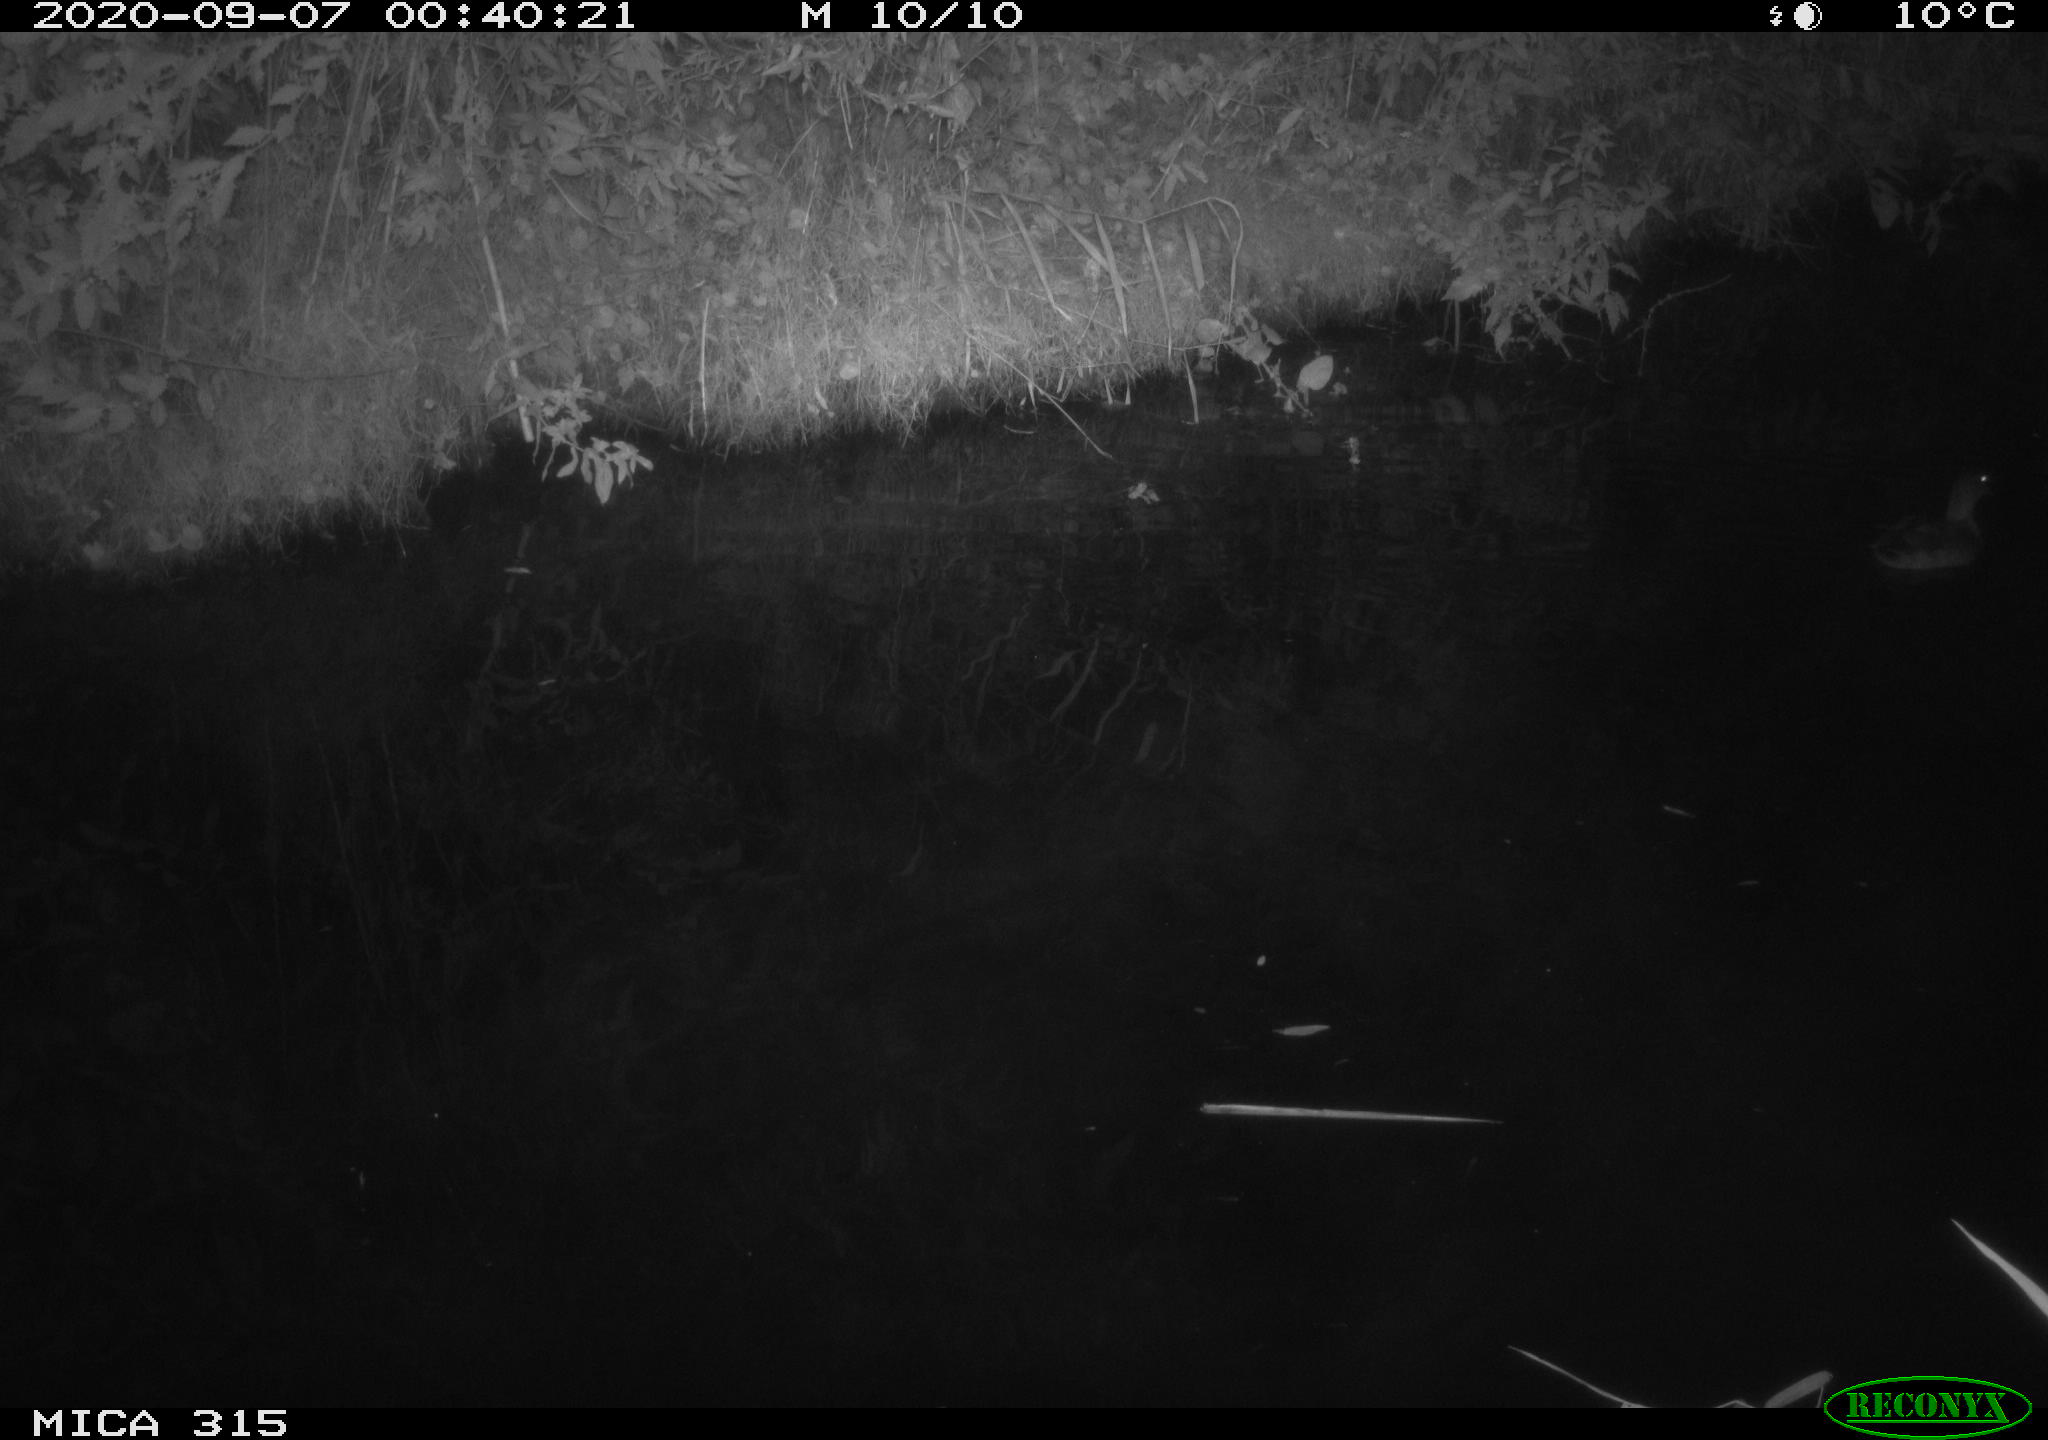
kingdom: Animalia
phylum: Chordata
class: Aves
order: Anseriformes
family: Anatidae
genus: Anas
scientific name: Anas platyrhynchos
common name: Mallard
